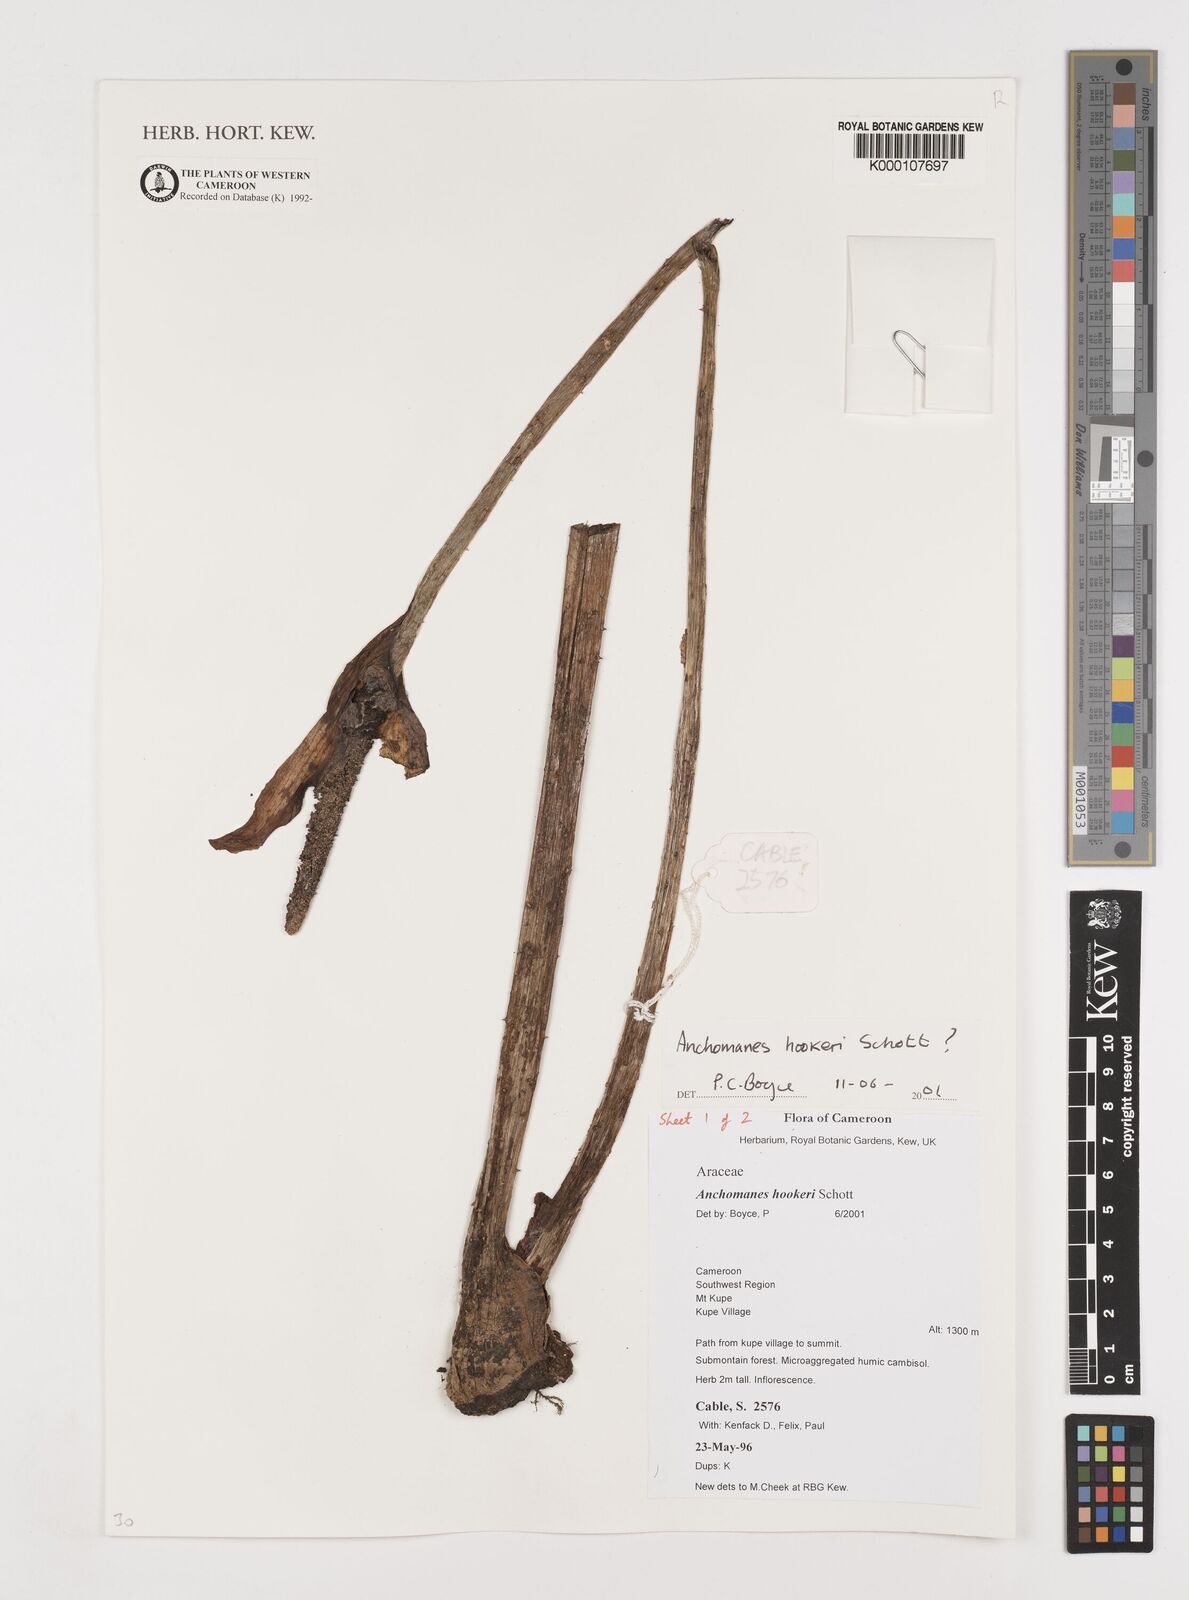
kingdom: Plantae
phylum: Tracheophyta
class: Liliopsida
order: Alismatales
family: Araceae
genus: Anchomanes
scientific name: Anchomanes difformis
